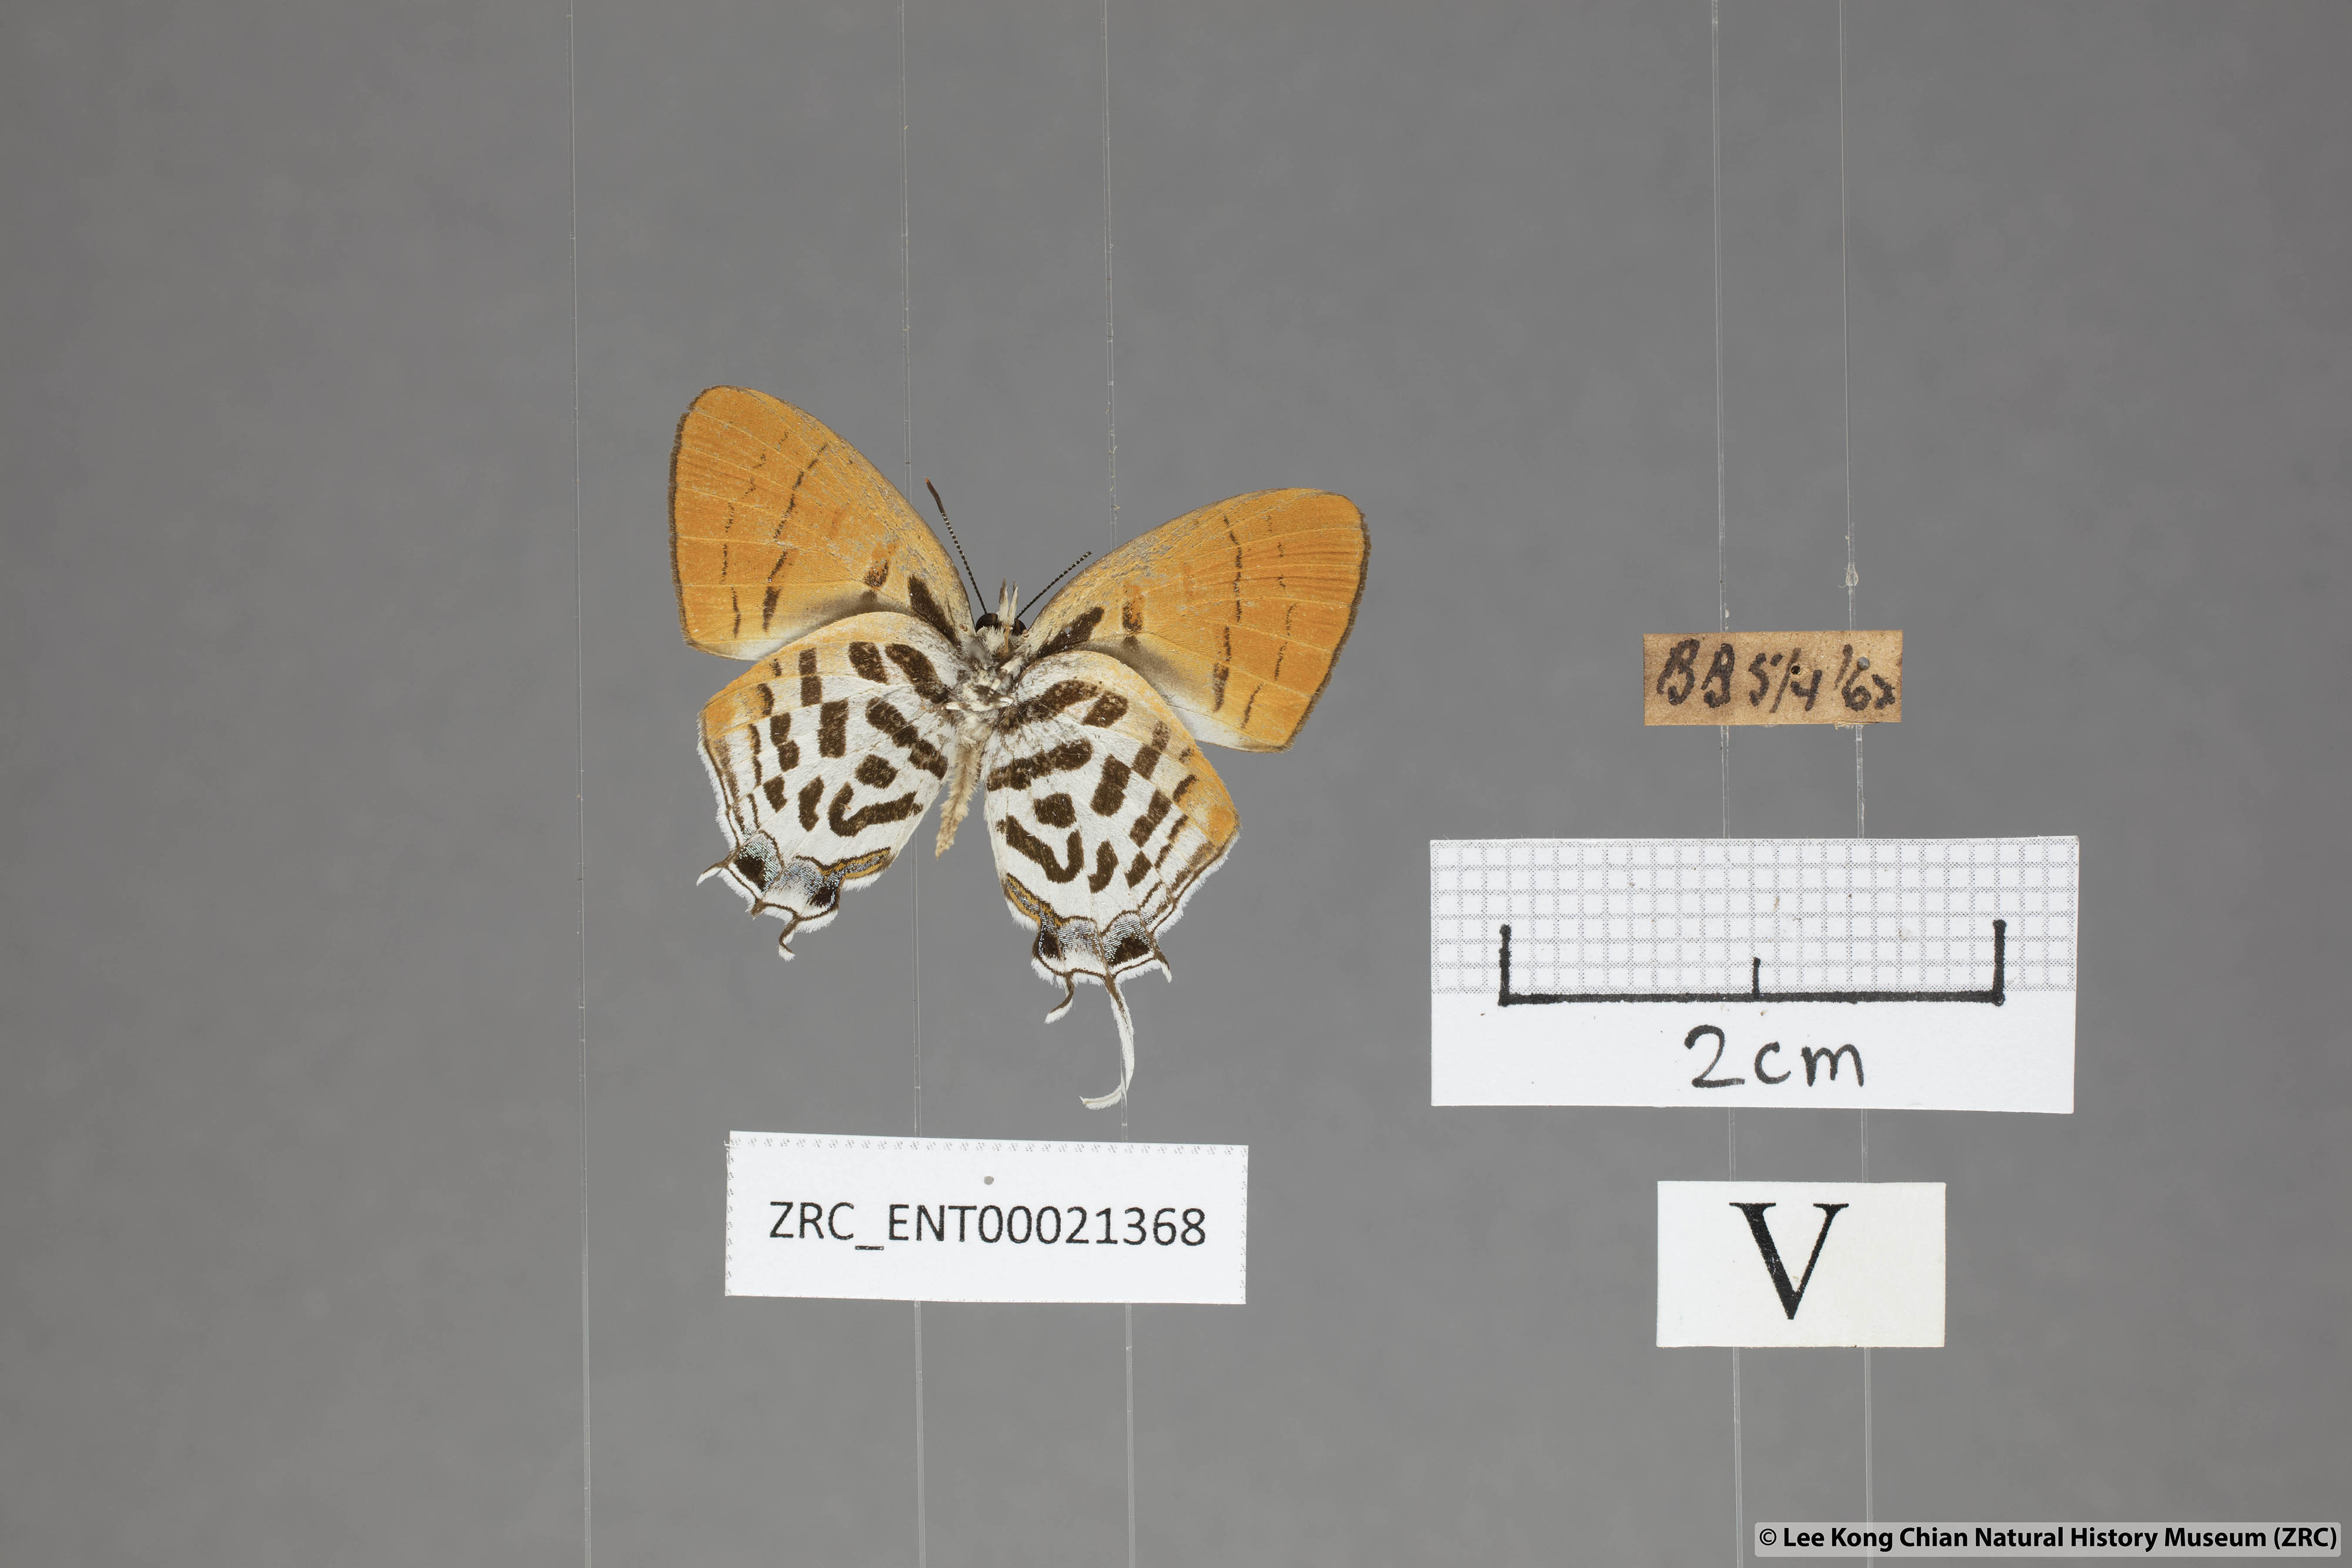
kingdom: Animalia
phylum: Arthropoda
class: Insecta
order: Lepidoptera
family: Lycaenidae
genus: Drupadia
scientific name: Drupadia ravindra
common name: Common posy
